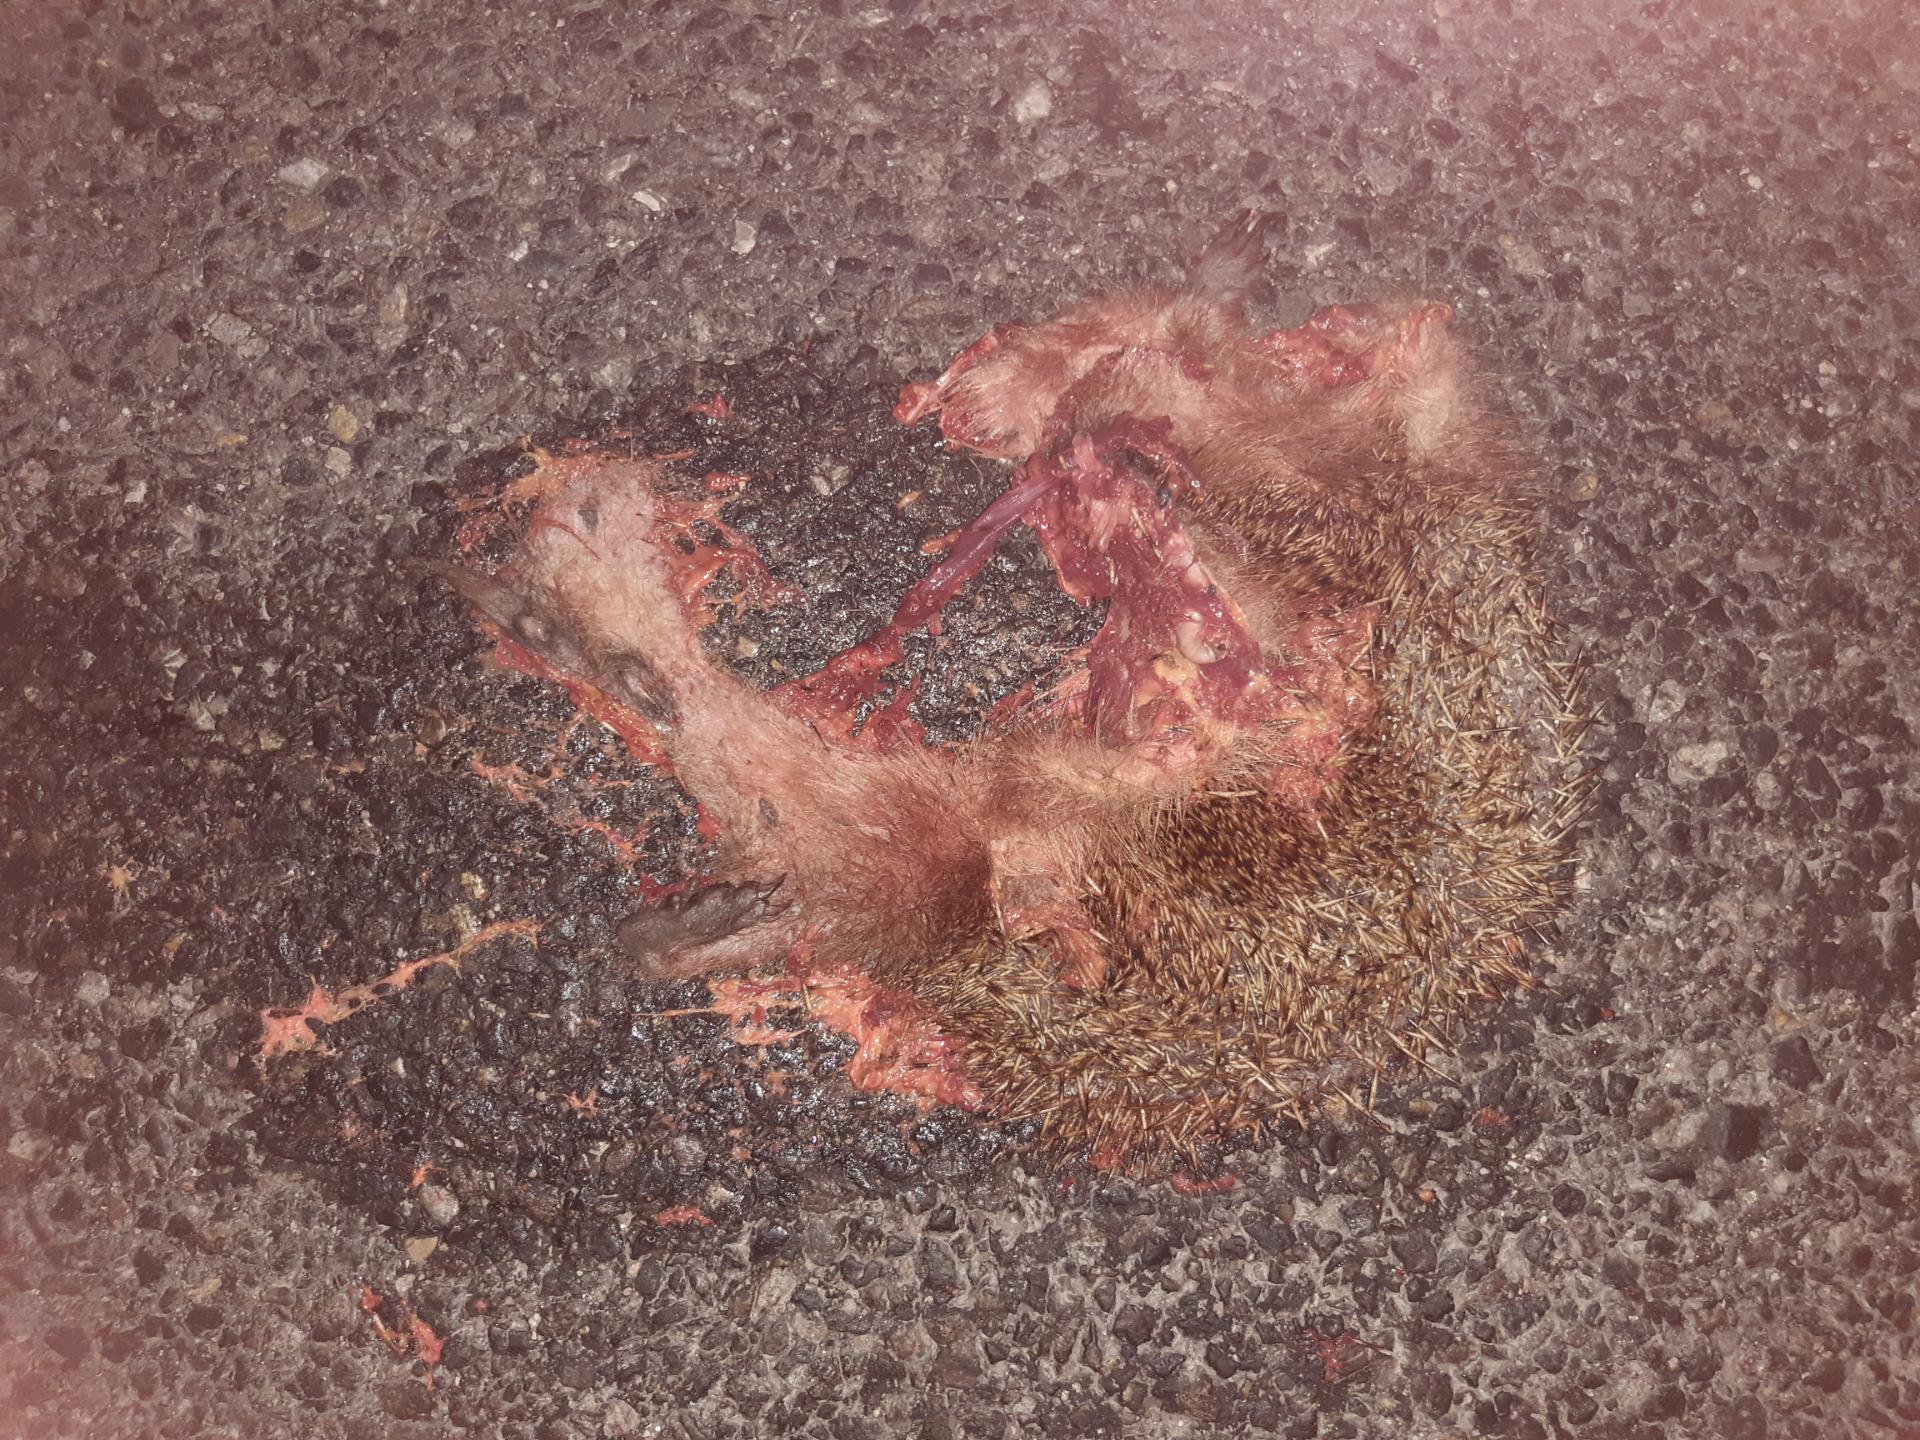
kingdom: Animalia
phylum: Chordata
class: Mammalia
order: Erinaceomorpha
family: Erinaceidae
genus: Erinaceus
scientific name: Erinaceus
